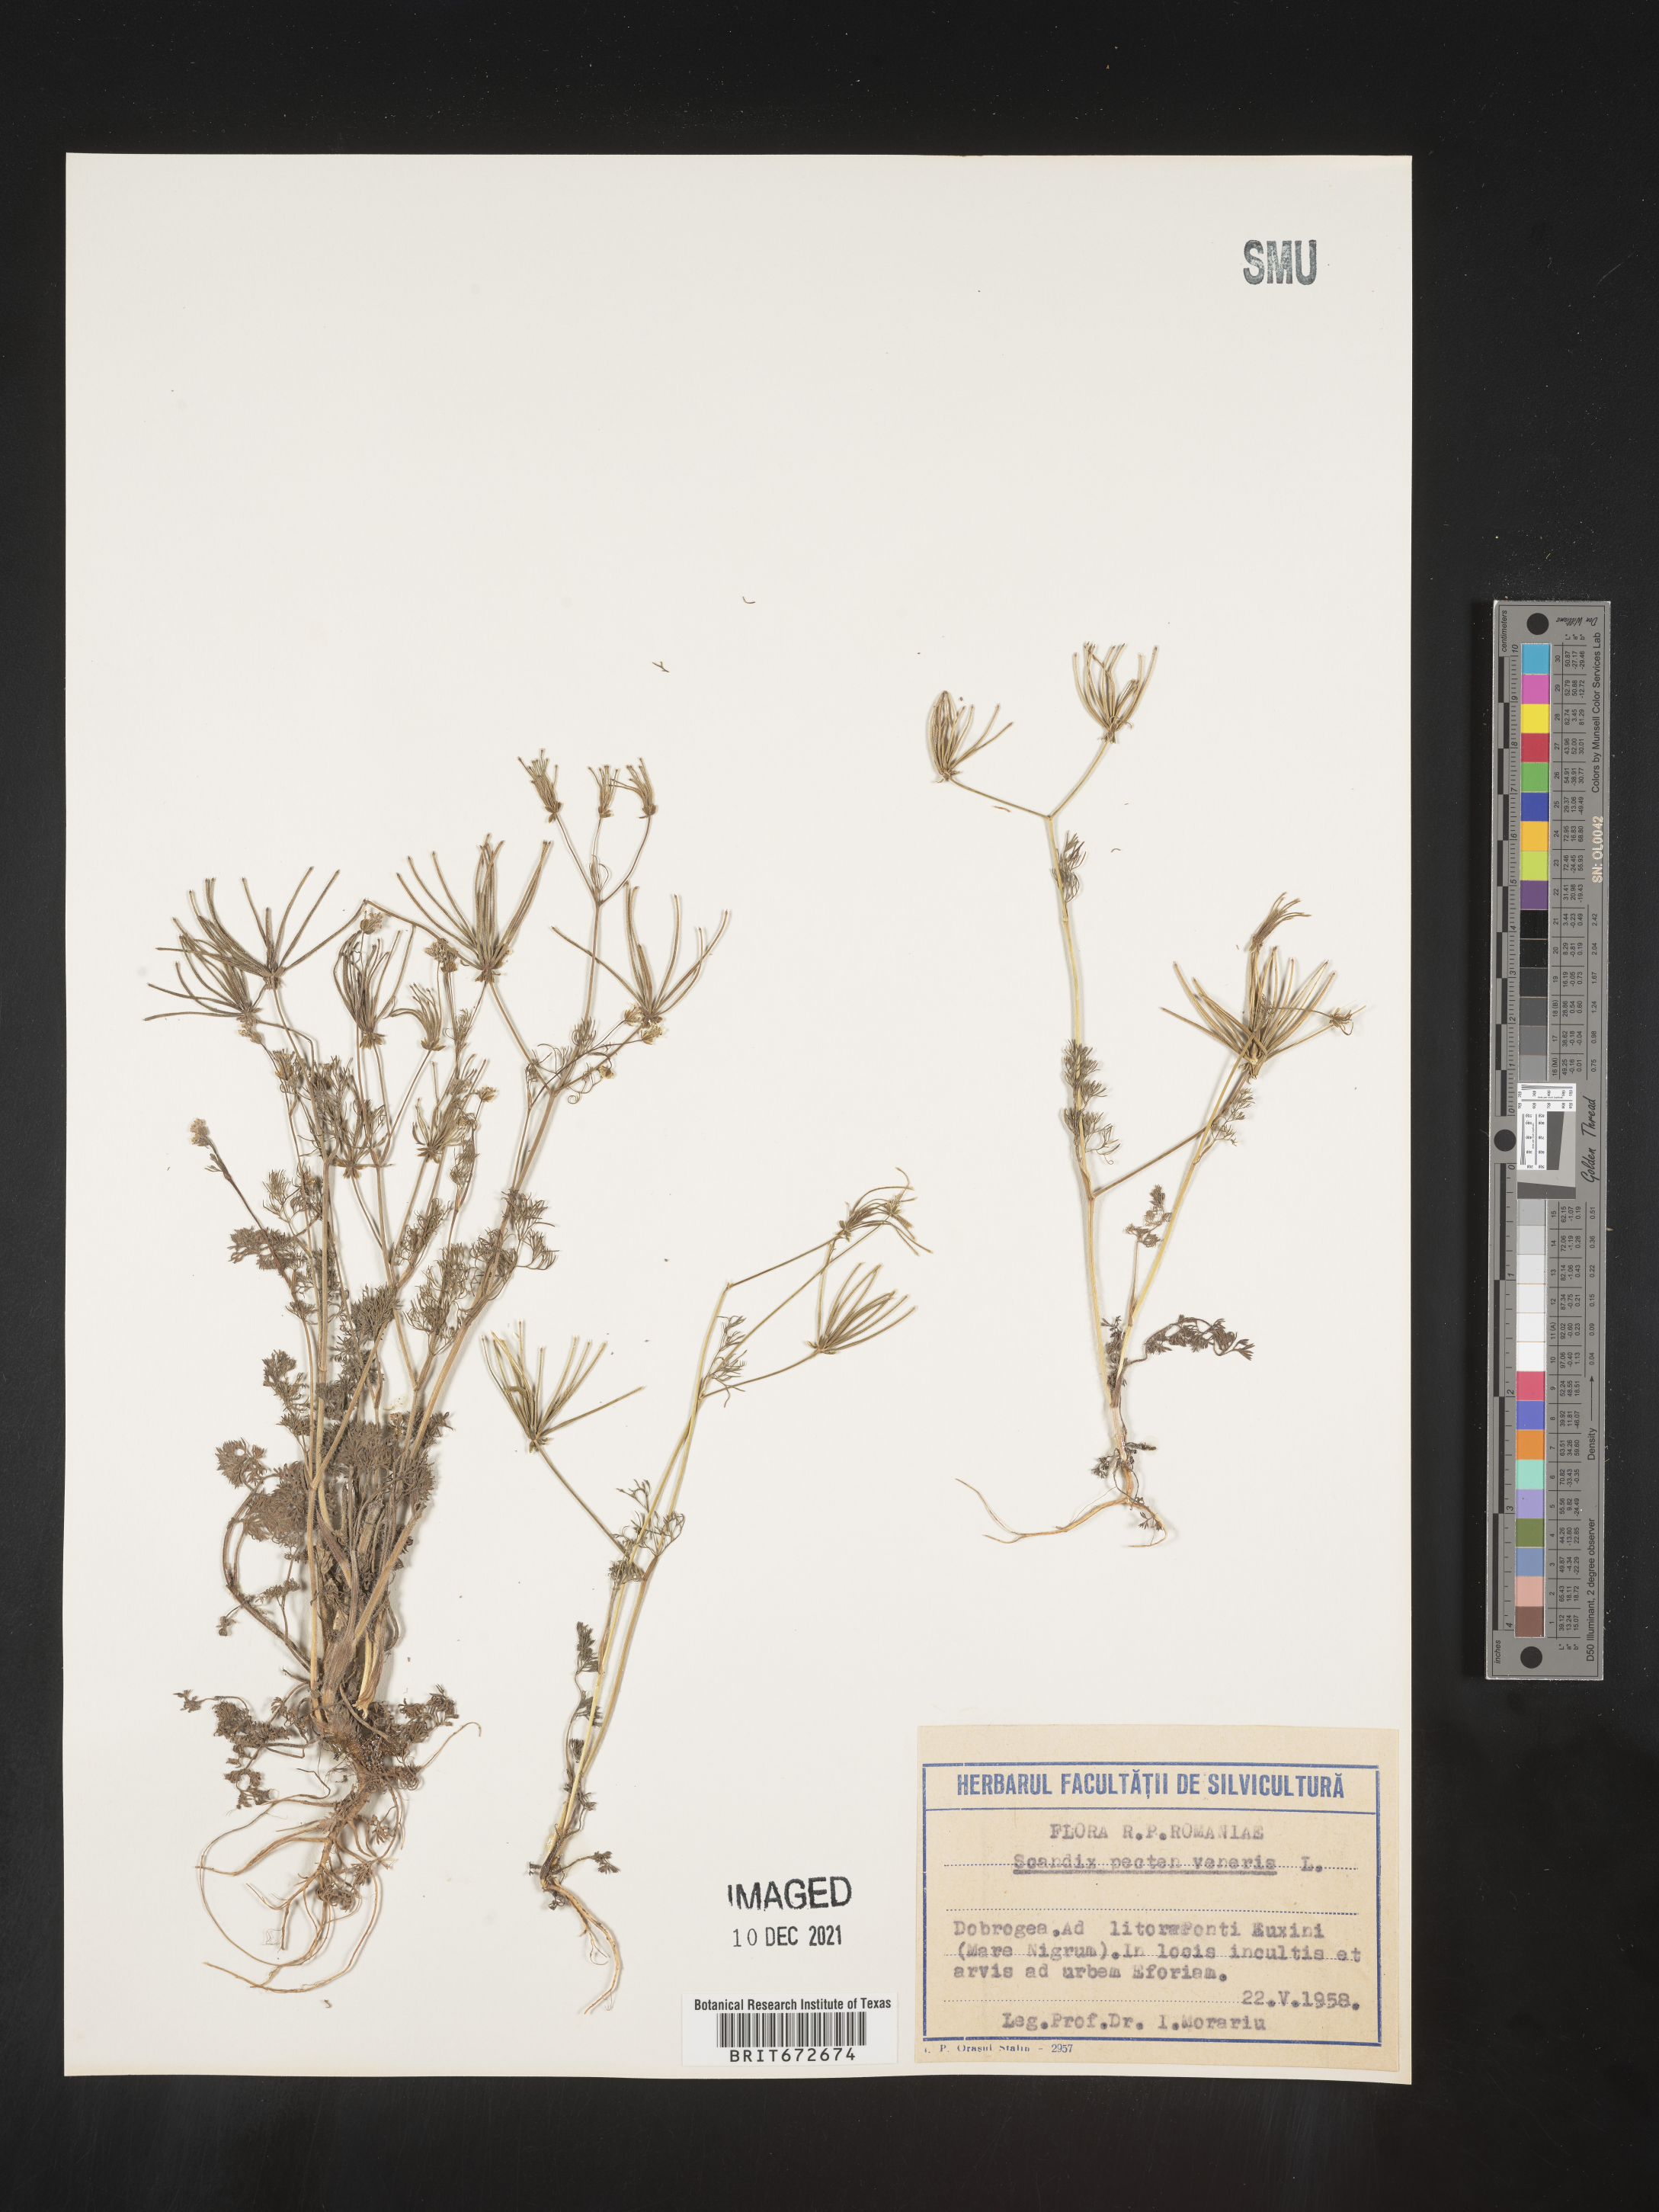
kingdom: Plantae
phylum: Tracheophyta
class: Magnoliopsida
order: Apiales
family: Apiaceae
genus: Scandix
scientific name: Scandix
